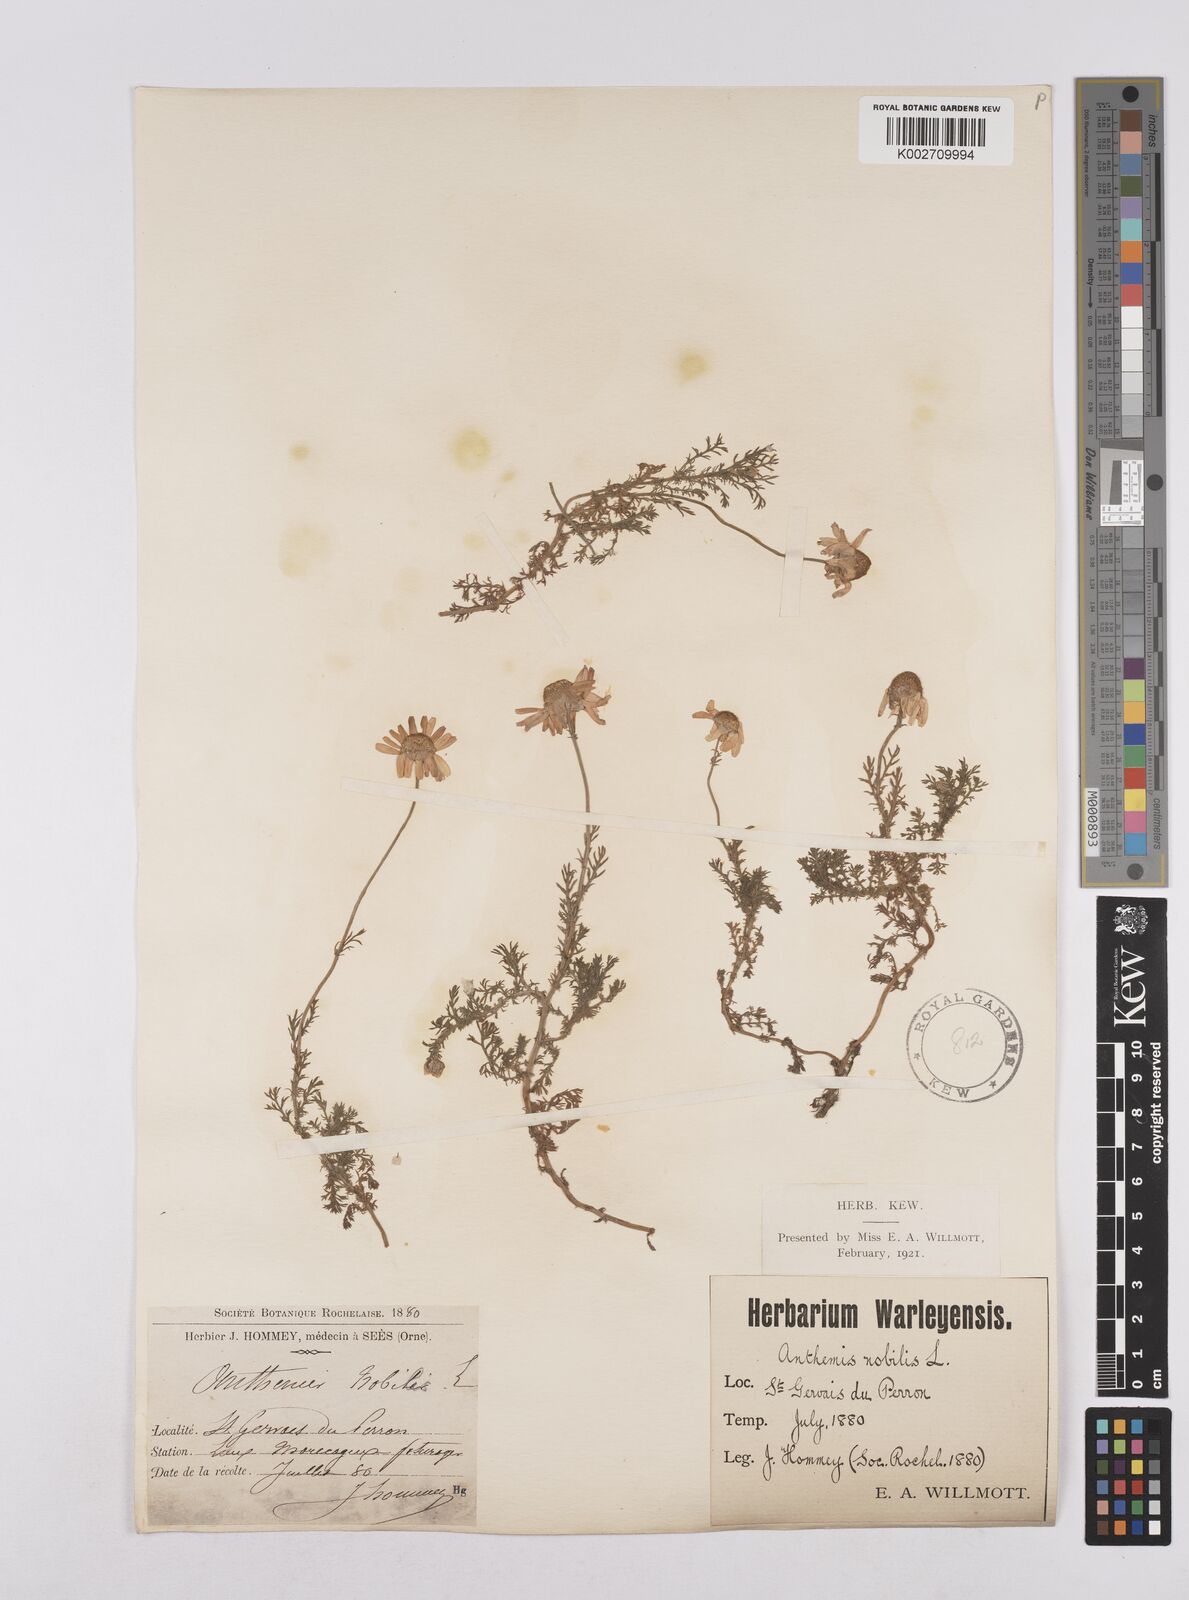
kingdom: Plantae
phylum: Tracheophyta
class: Magnoliopsida
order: Asterales
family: Asteraceae
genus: Chamaemelum
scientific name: Chamaemelum nobile
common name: Roman chamomile
